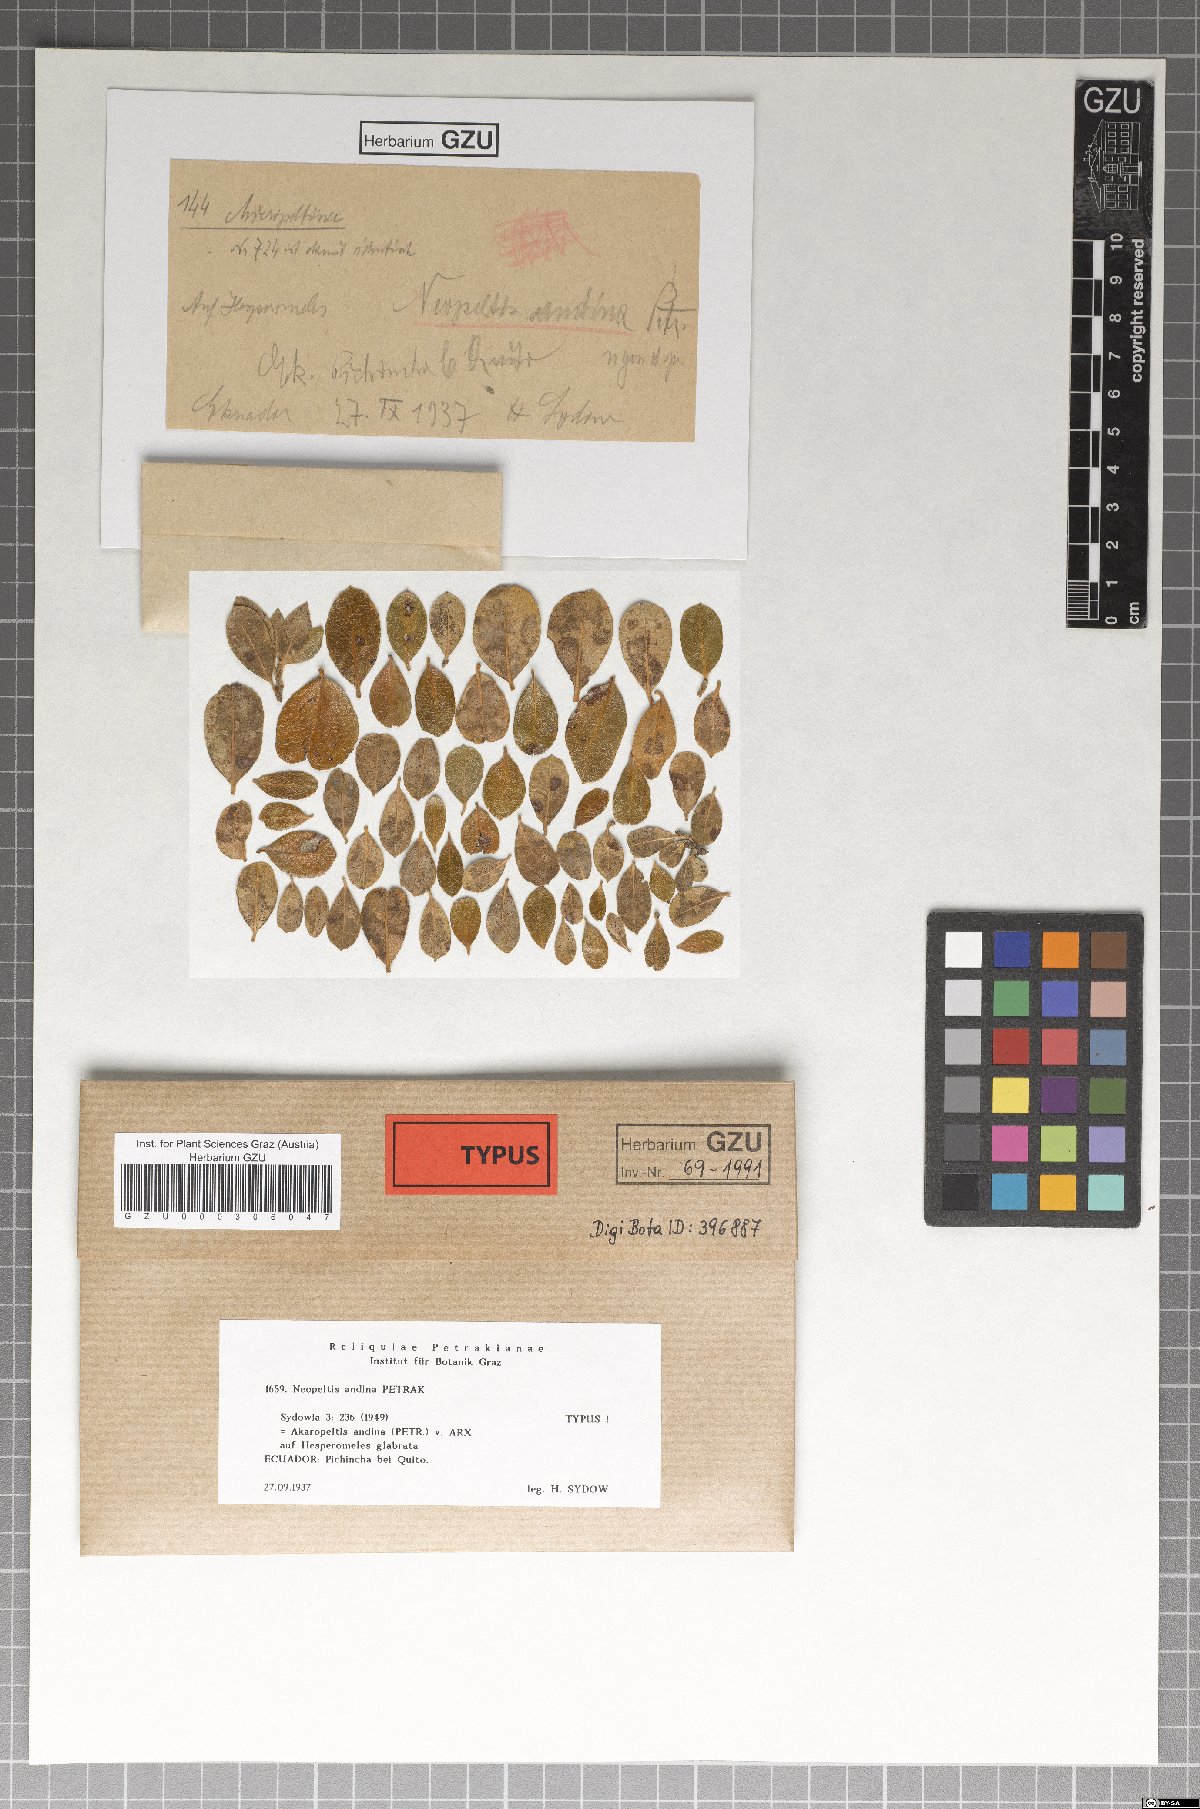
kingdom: Fungi
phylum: Ascomycota
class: Dothideomycetes
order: Microthyriales
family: Micropeltidaceae
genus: Stomiopeltis
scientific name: Stomiopeltis andina
